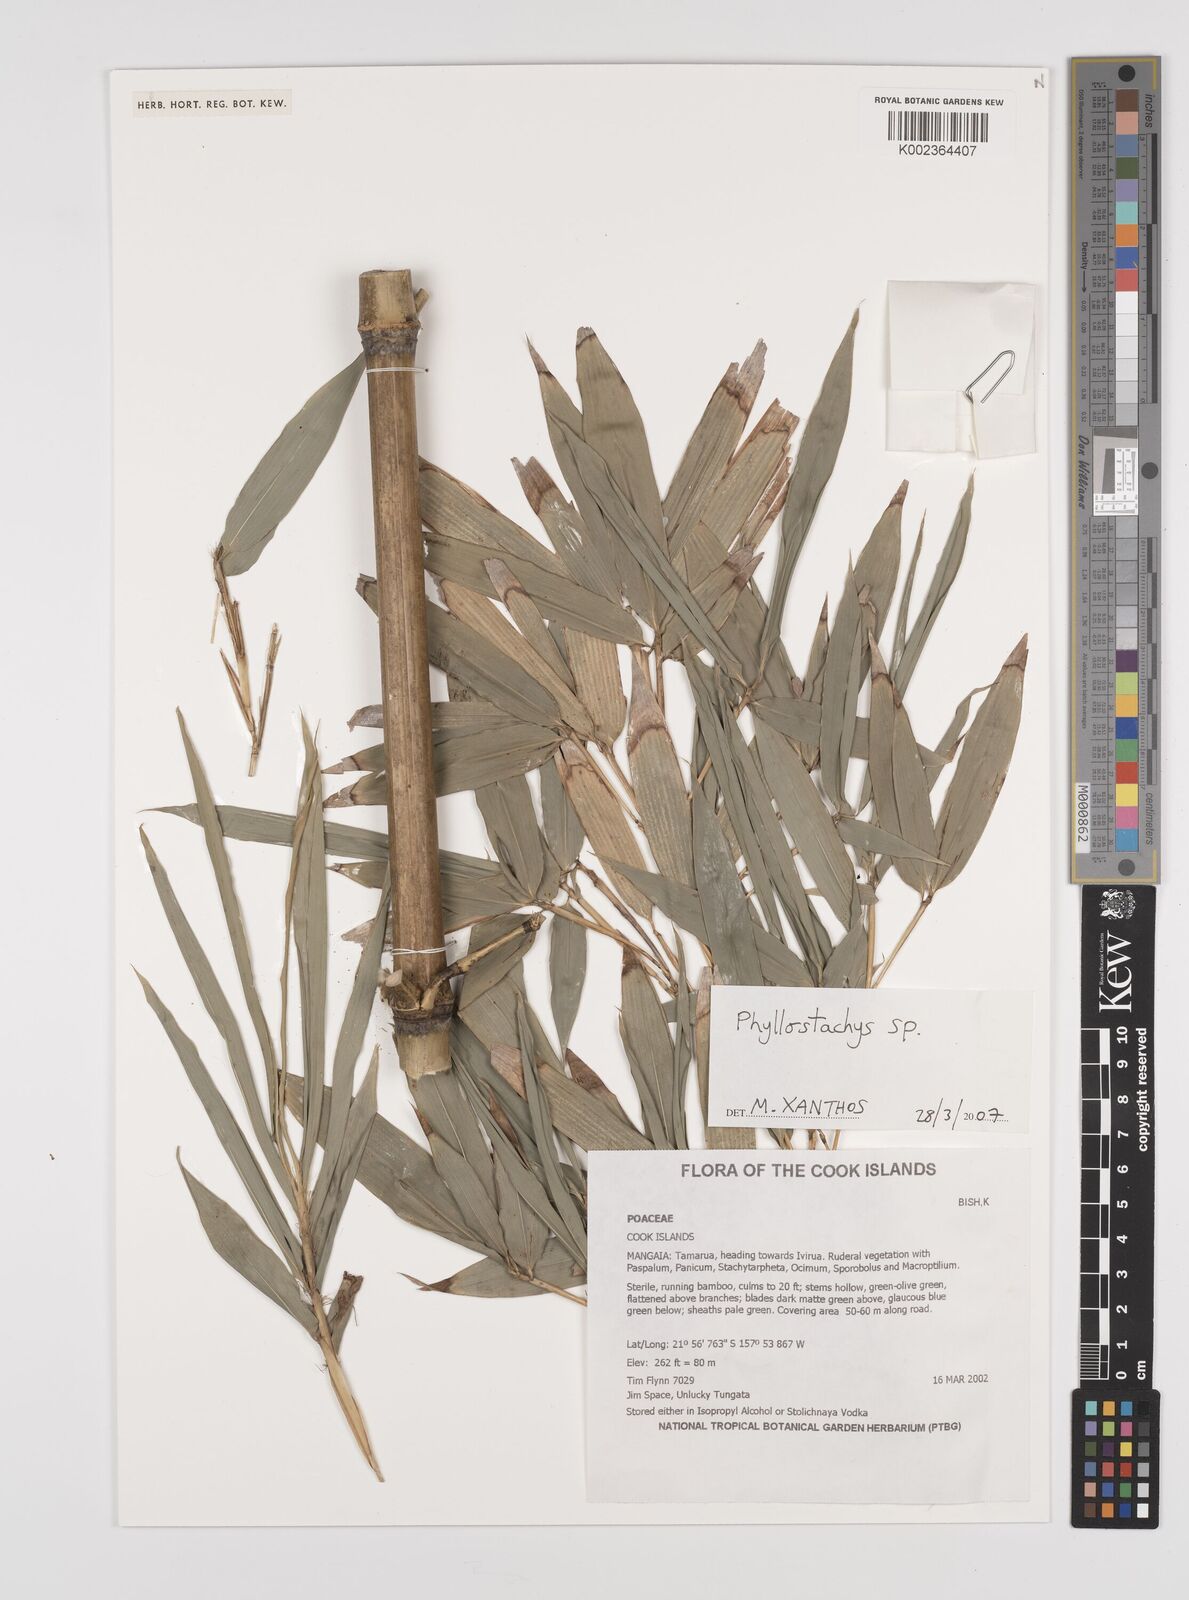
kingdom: Plantae
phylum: Tracheophyta
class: Liliopsida
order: Poales
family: Poaceae
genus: Phyllostachys
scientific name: Phyllostachys
